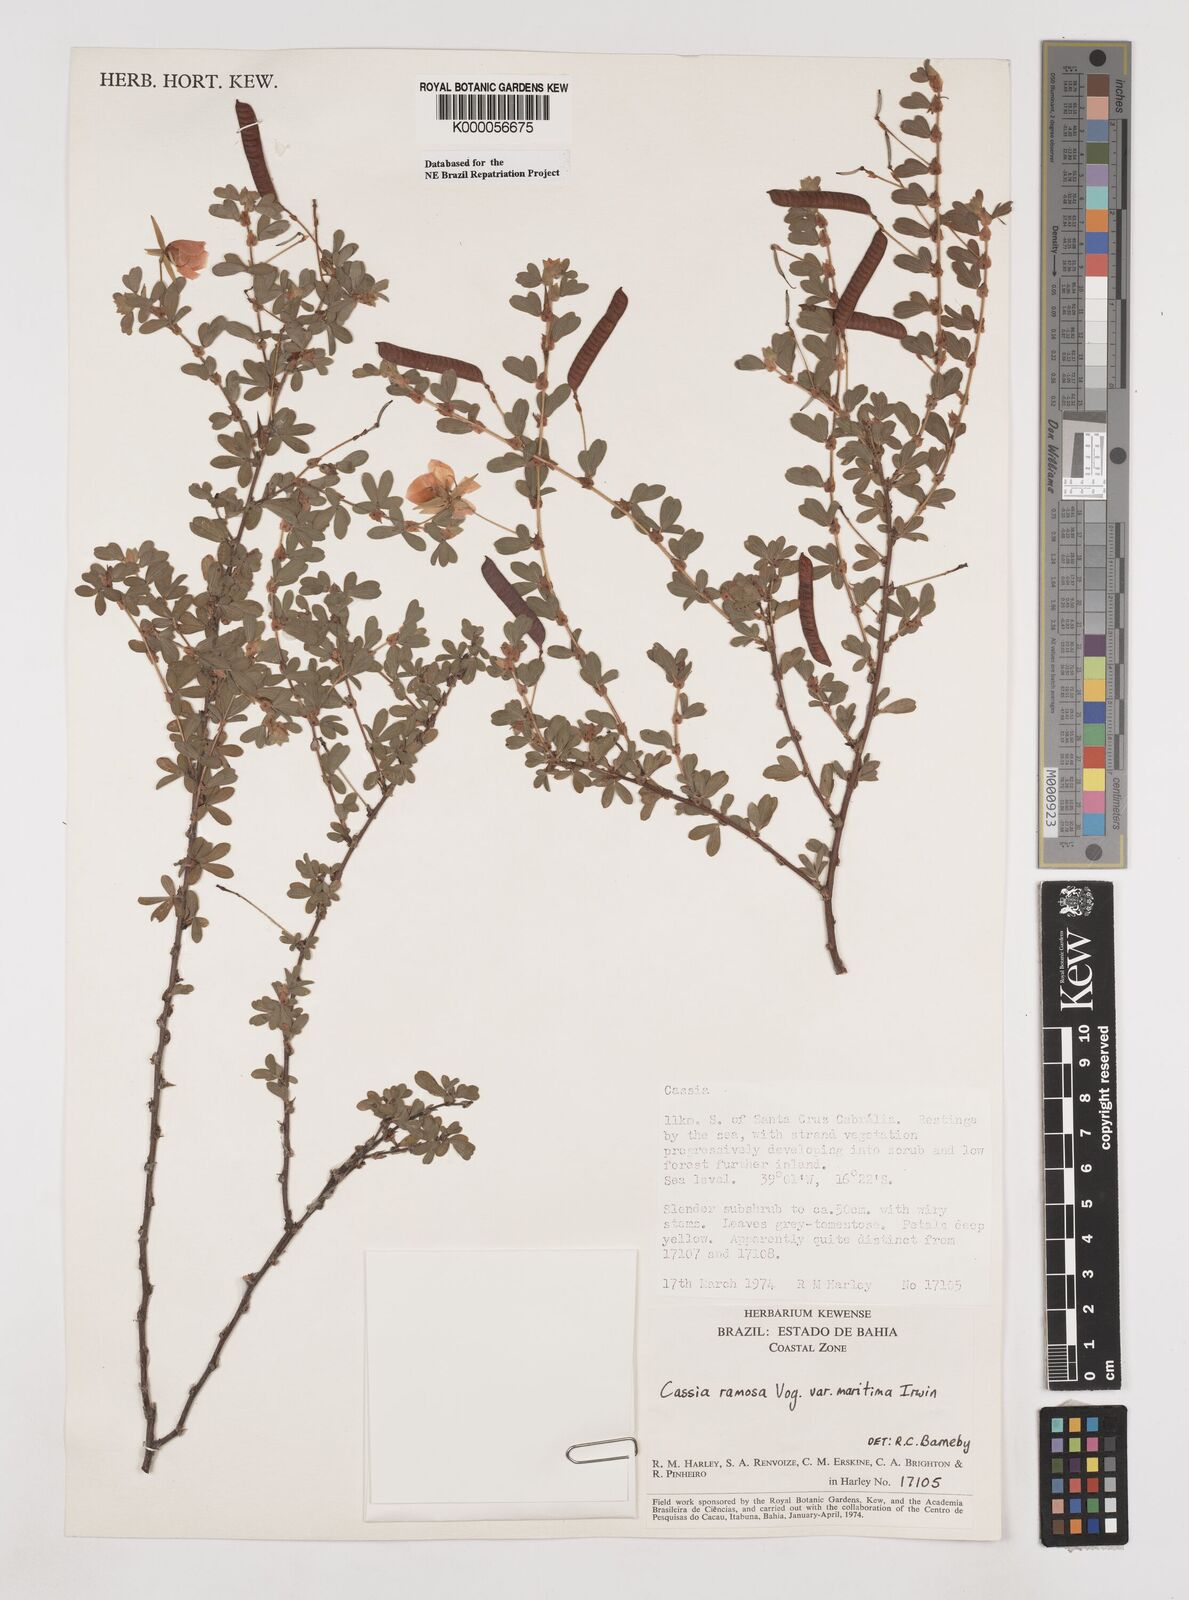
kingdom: Plantae
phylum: Tracheophyta
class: Magnoliopsida
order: Fabales
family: Fabaceae
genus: Chamaecrista
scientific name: Chamaecrista ramosa
